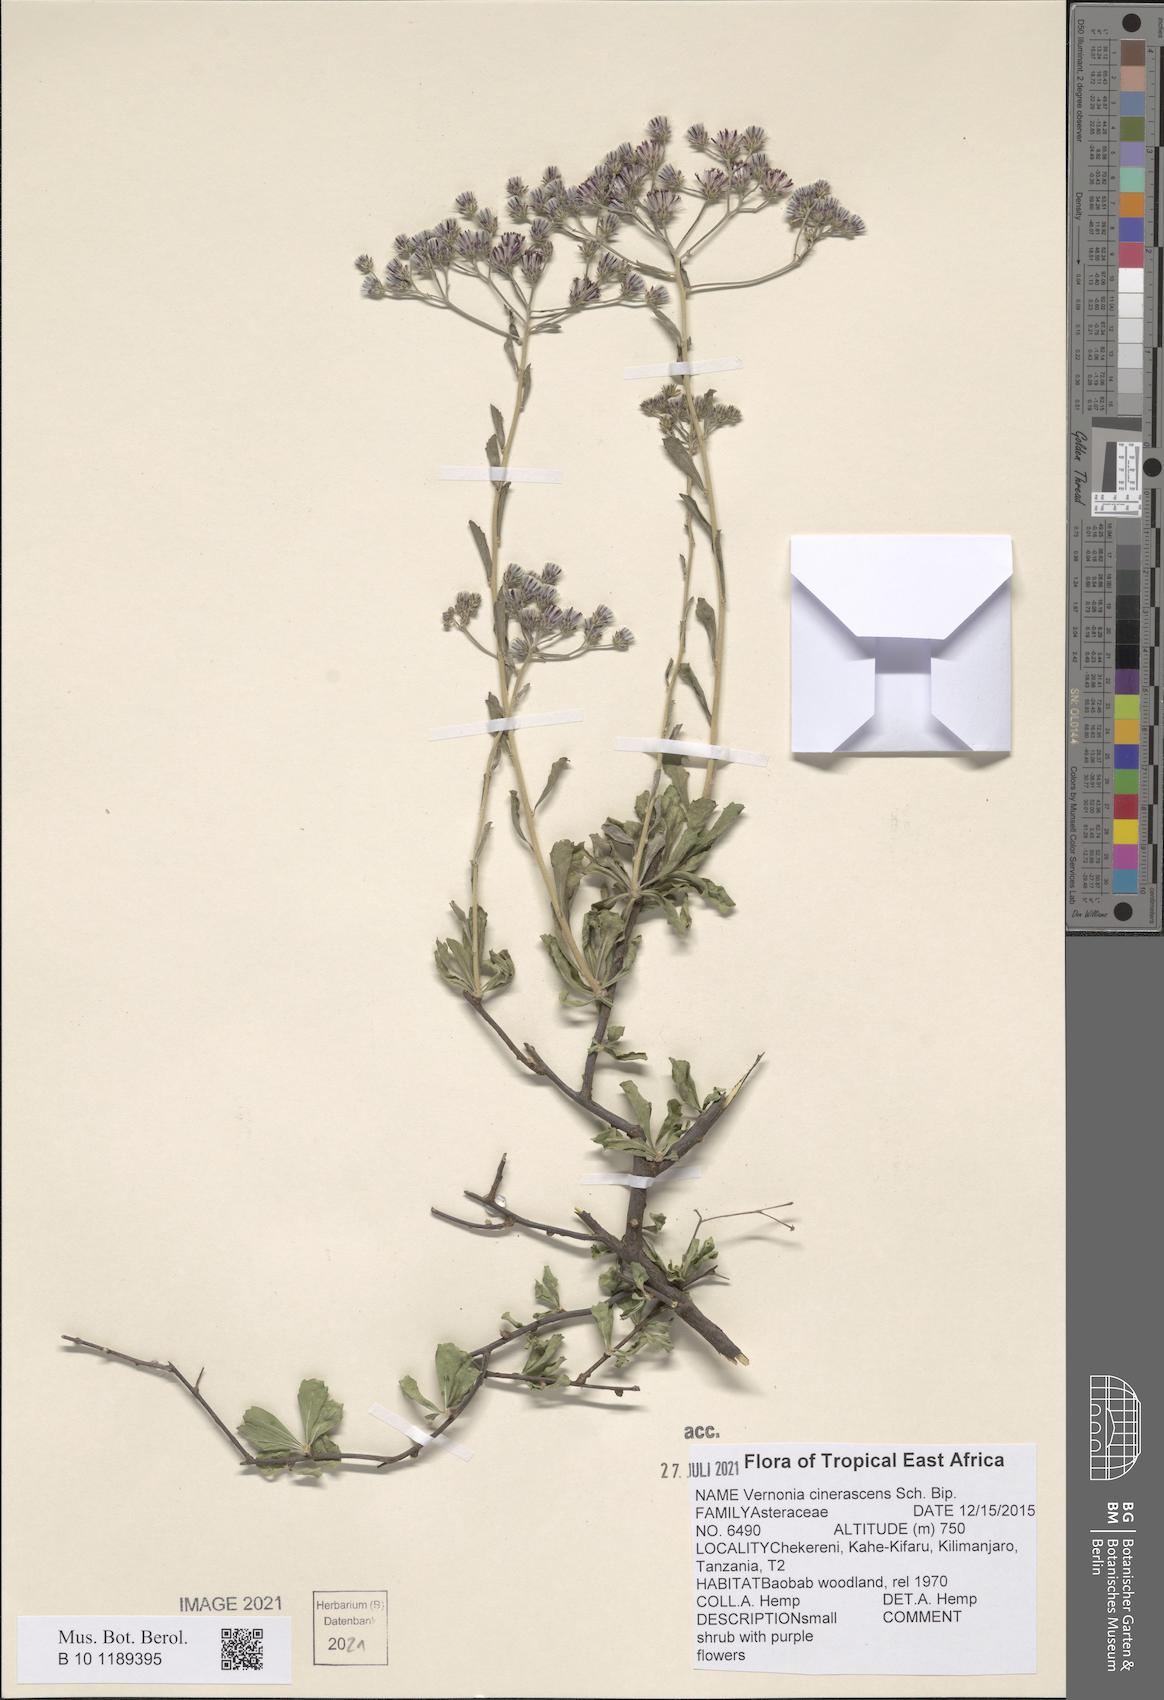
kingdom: Plantae
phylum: Tracheophyta
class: Magnoliopsida
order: Asterales
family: Asteraceae
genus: Orbivestus
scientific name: Orbivestus cinerascens
